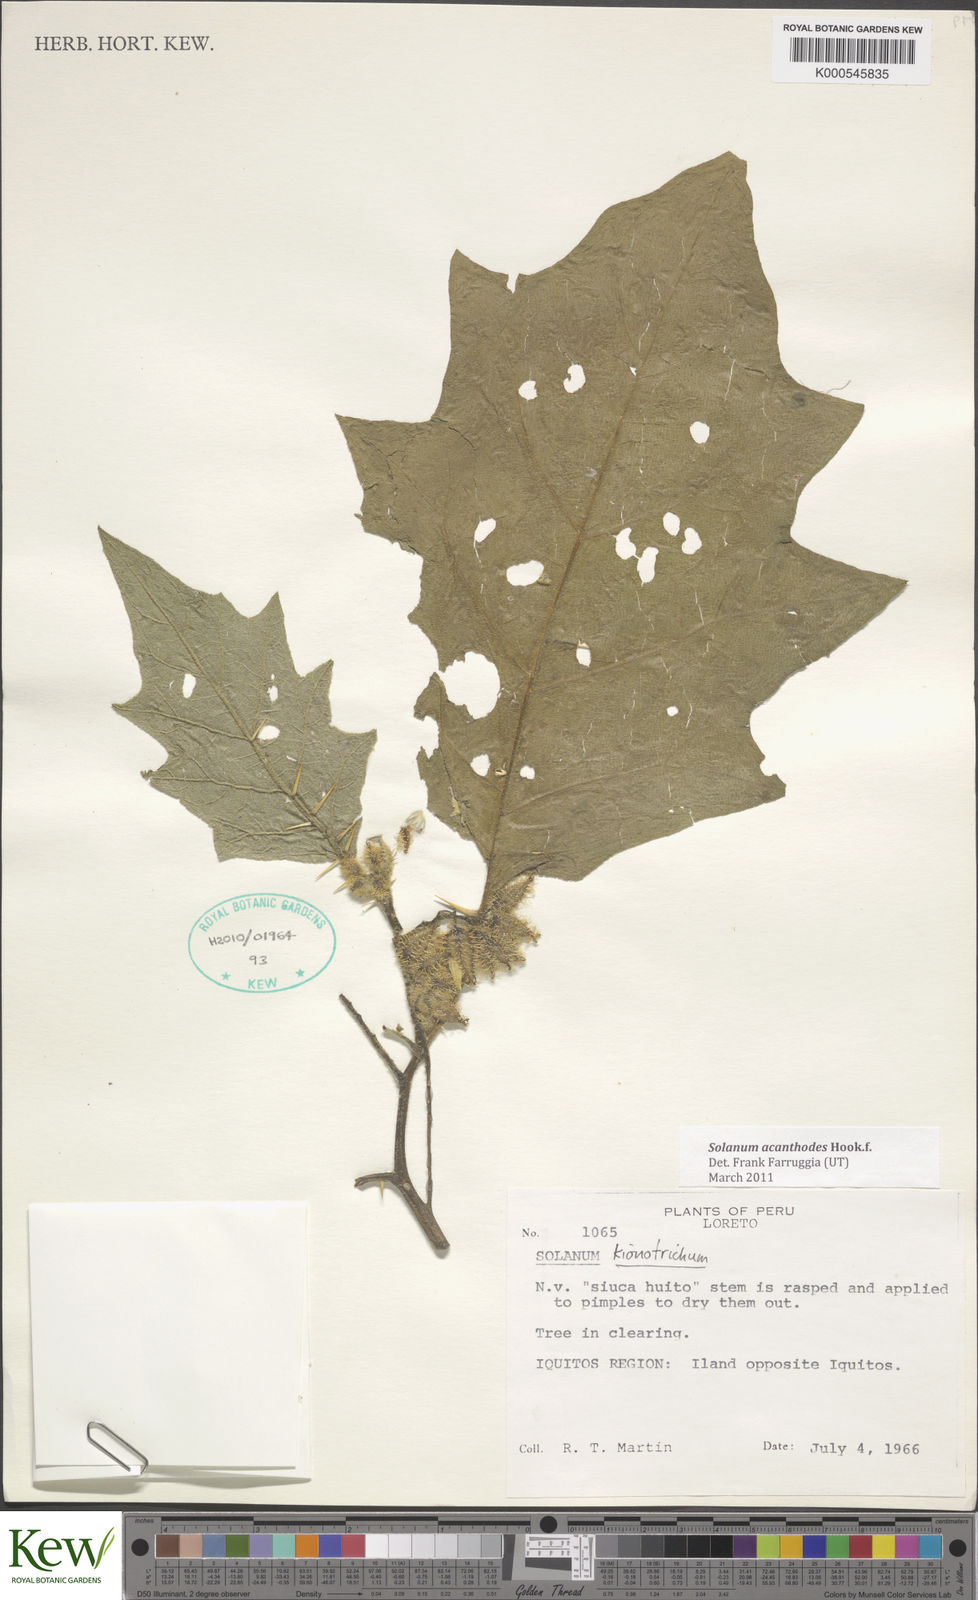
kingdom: Plantae
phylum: Tracheophyta
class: Magnoliopsida
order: Solanales
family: Solanaceae
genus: Solanum
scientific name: Solanum vanheurckii
